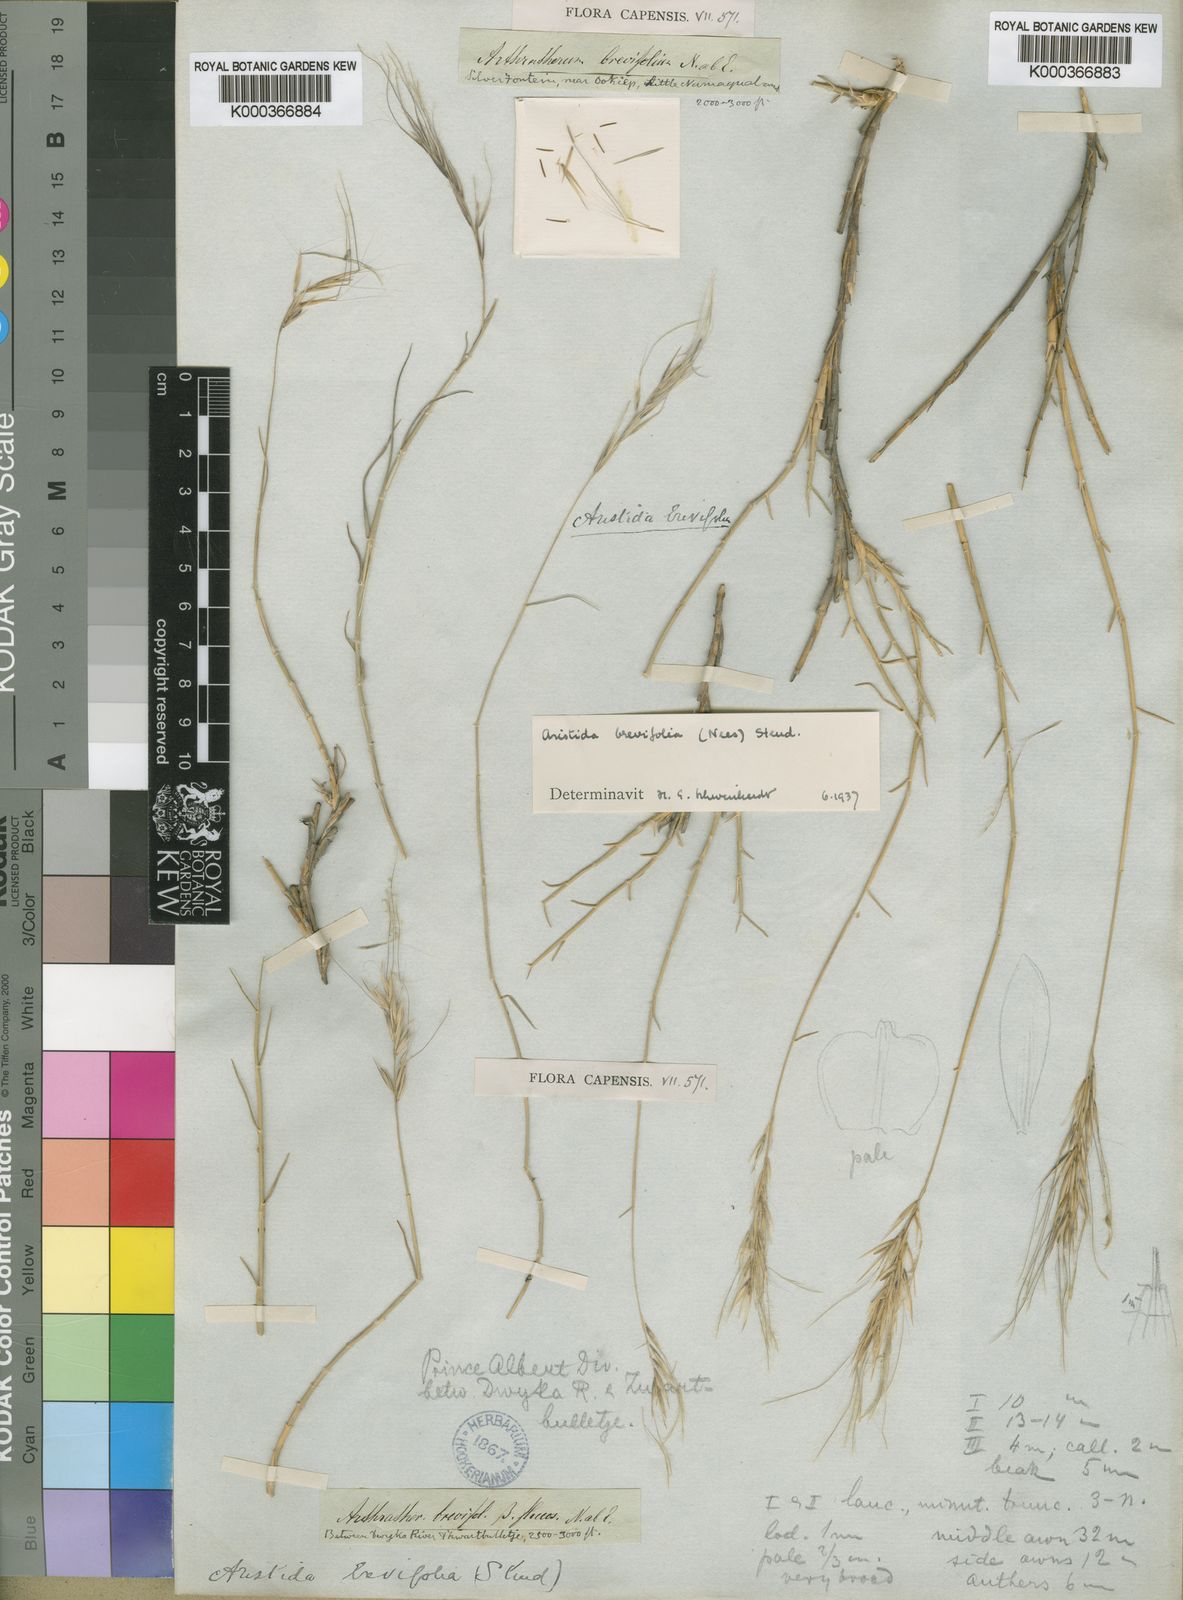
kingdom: Plantae
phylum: Tracheophyta
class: Liliopsida
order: Poales
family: Poaceae
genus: Stipagrostis
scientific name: Stipagrostis brevifolia
